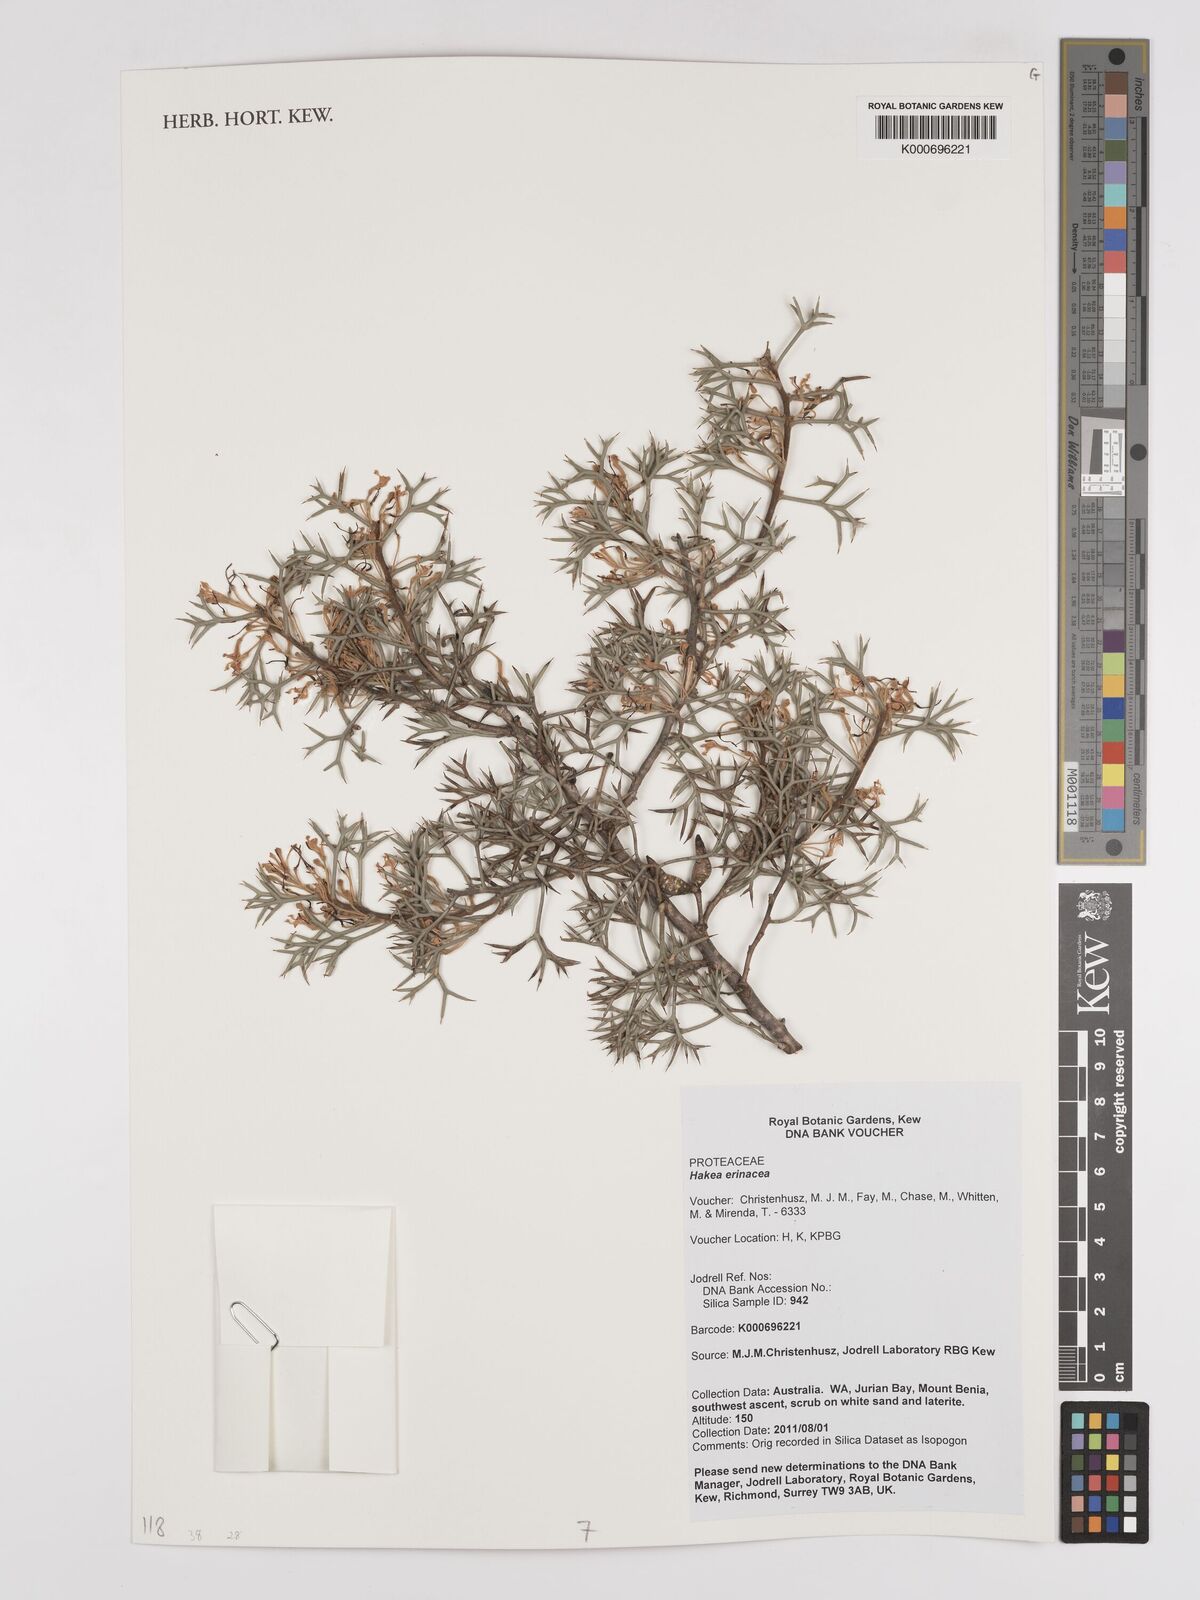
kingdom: Plantae
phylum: Tracheophyta
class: Magnoliopsida
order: Proteales
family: Proteaceae
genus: Hakea
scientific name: Hakea erinacea
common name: Hedgehog hakea
